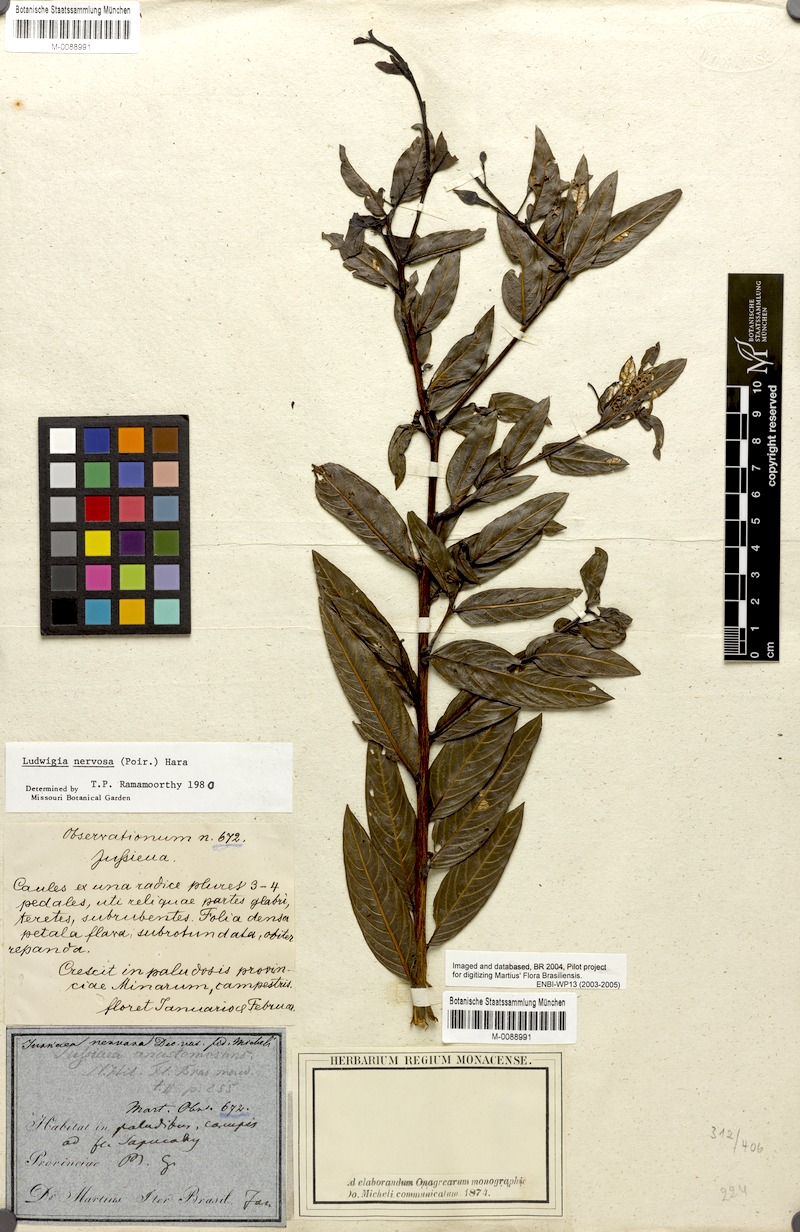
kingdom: Plantae
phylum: Tracheophyta
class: Magnoliopsida
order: Myrtales
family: Onagraceae
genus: Ludwigia
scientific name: Ludwigia nervosa
